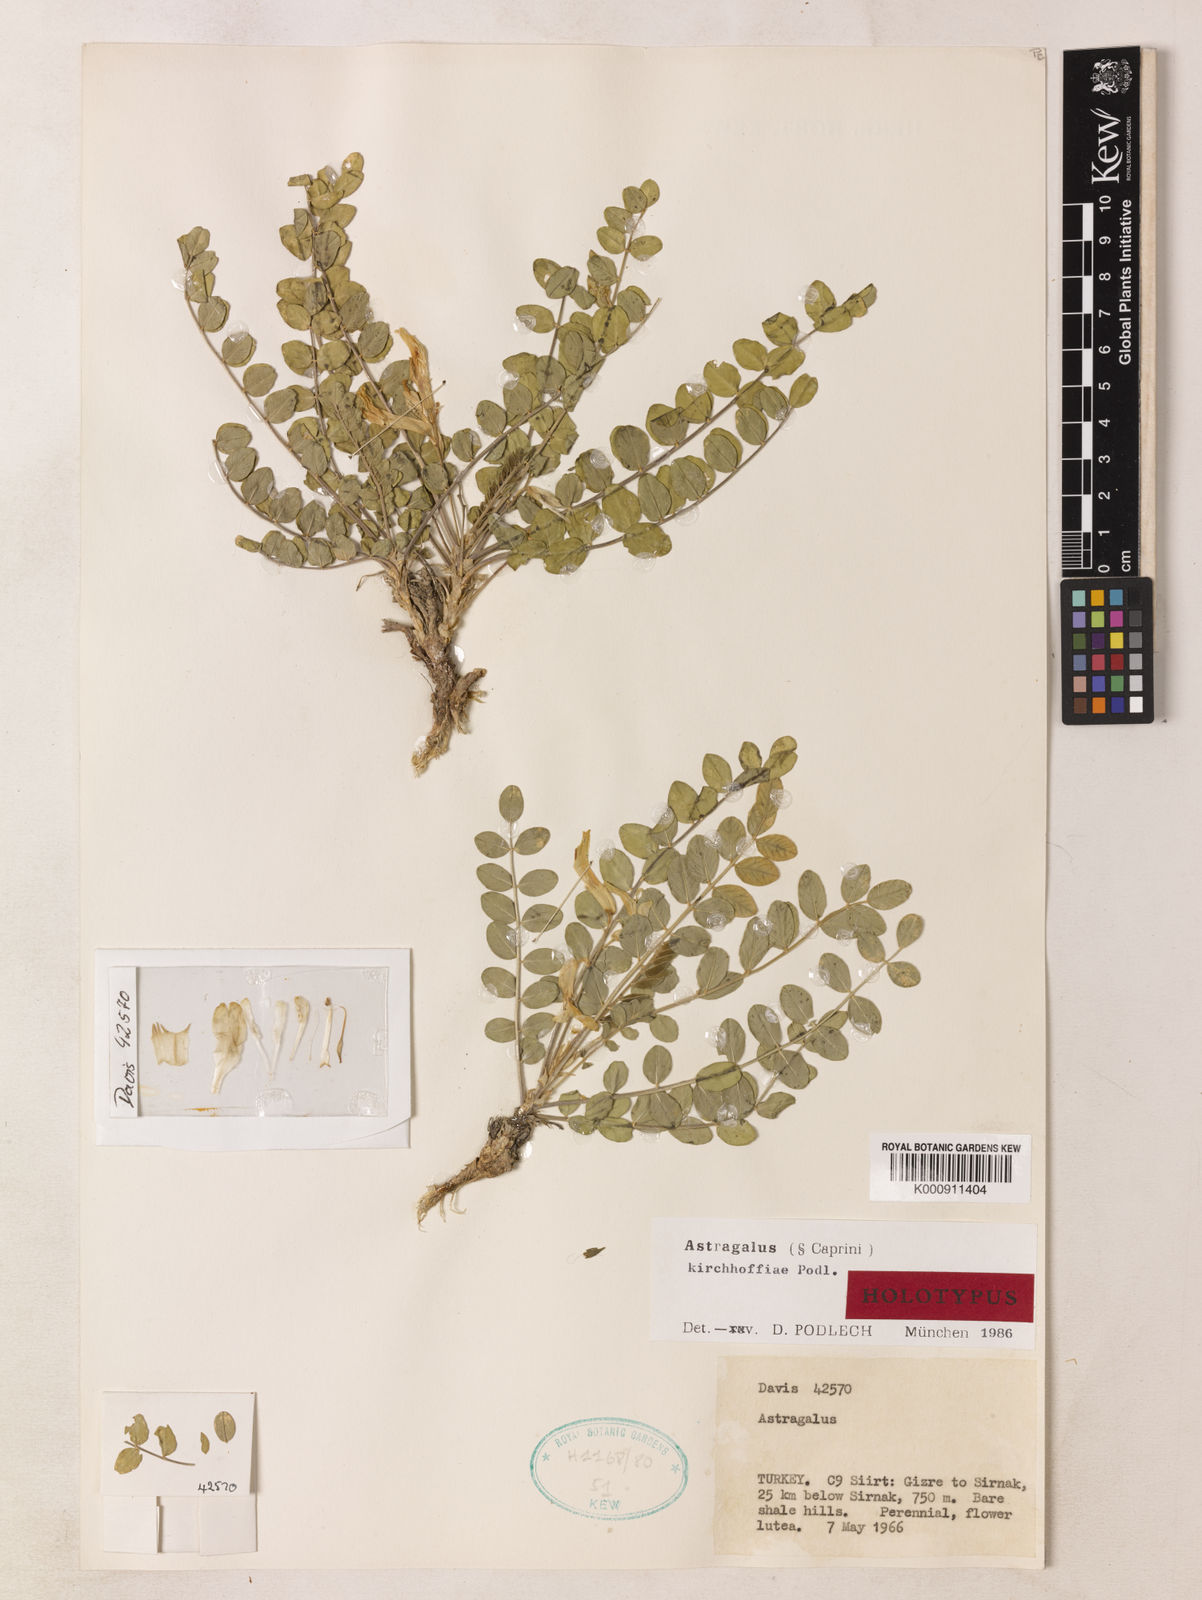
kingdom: Plantae
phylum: Tracheophyta
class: Magnoliopsida
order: Fabales
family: Fabaceae
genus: Astragalus
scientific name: Astragalus kirchhoffiae
